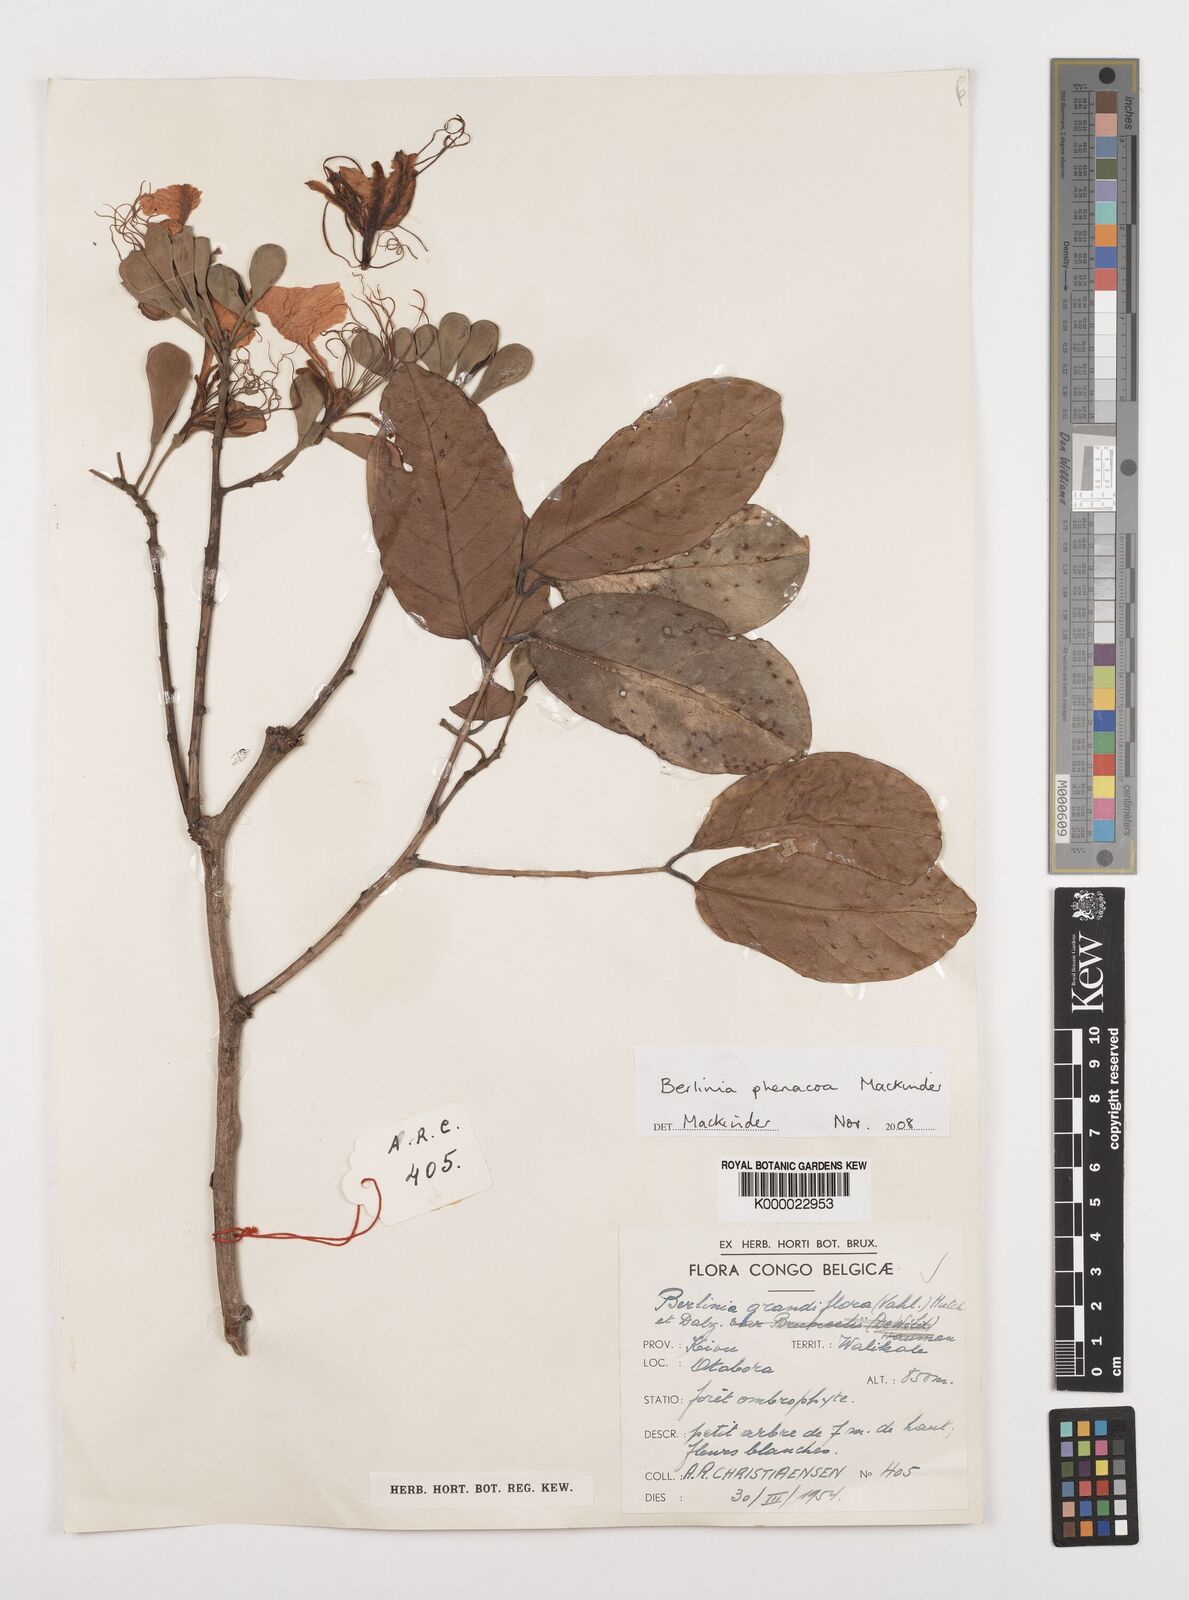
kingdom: Plantae
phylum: Tracheophyta
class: Magnoliopsida
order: Fabales
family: Fabaceae
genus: Berlinia
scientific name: Berlinia phenacoa
